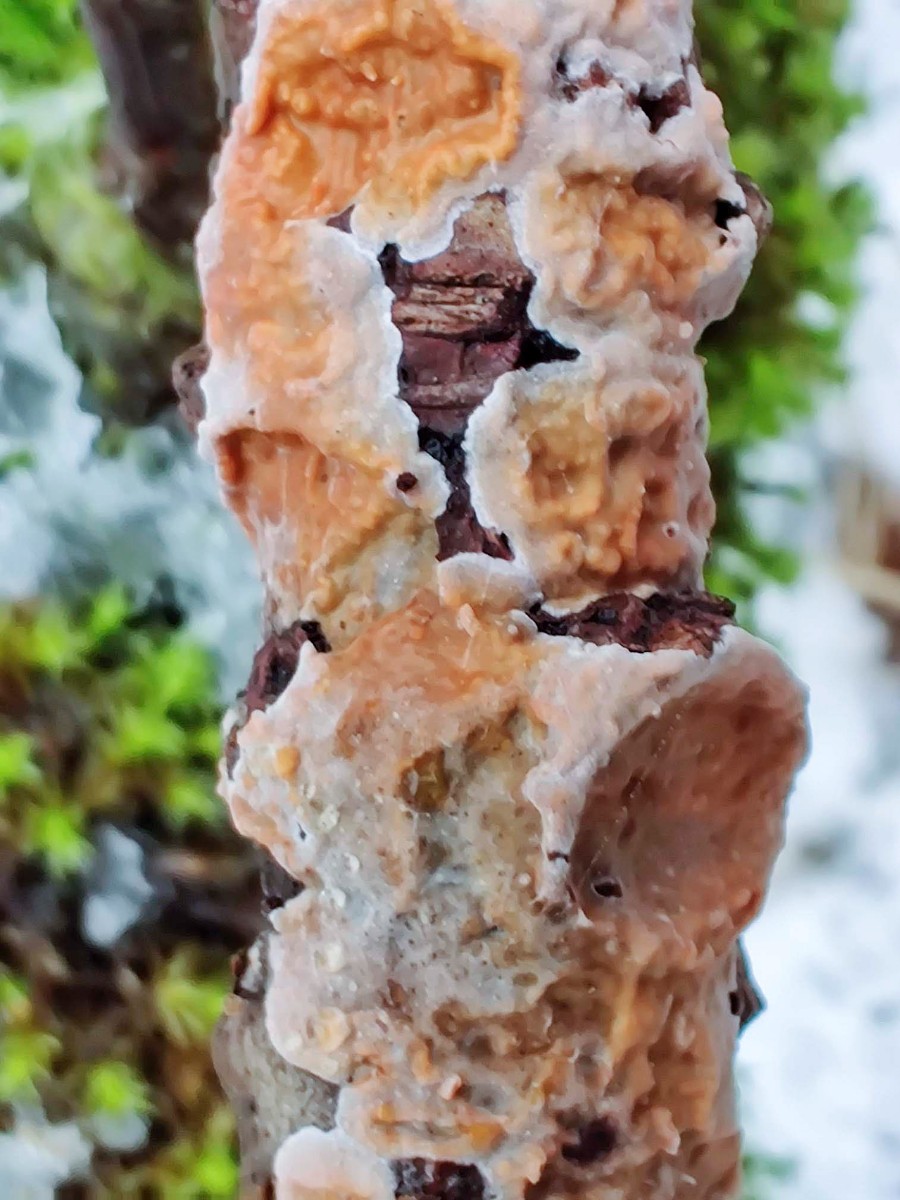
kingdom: Fungi
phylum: Basidiomycota
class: Agaricomycetes
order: Russulales
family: Peniophoraceae
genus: Peniophora
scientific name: Peniophora polygonia
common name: polygon-voksskind
